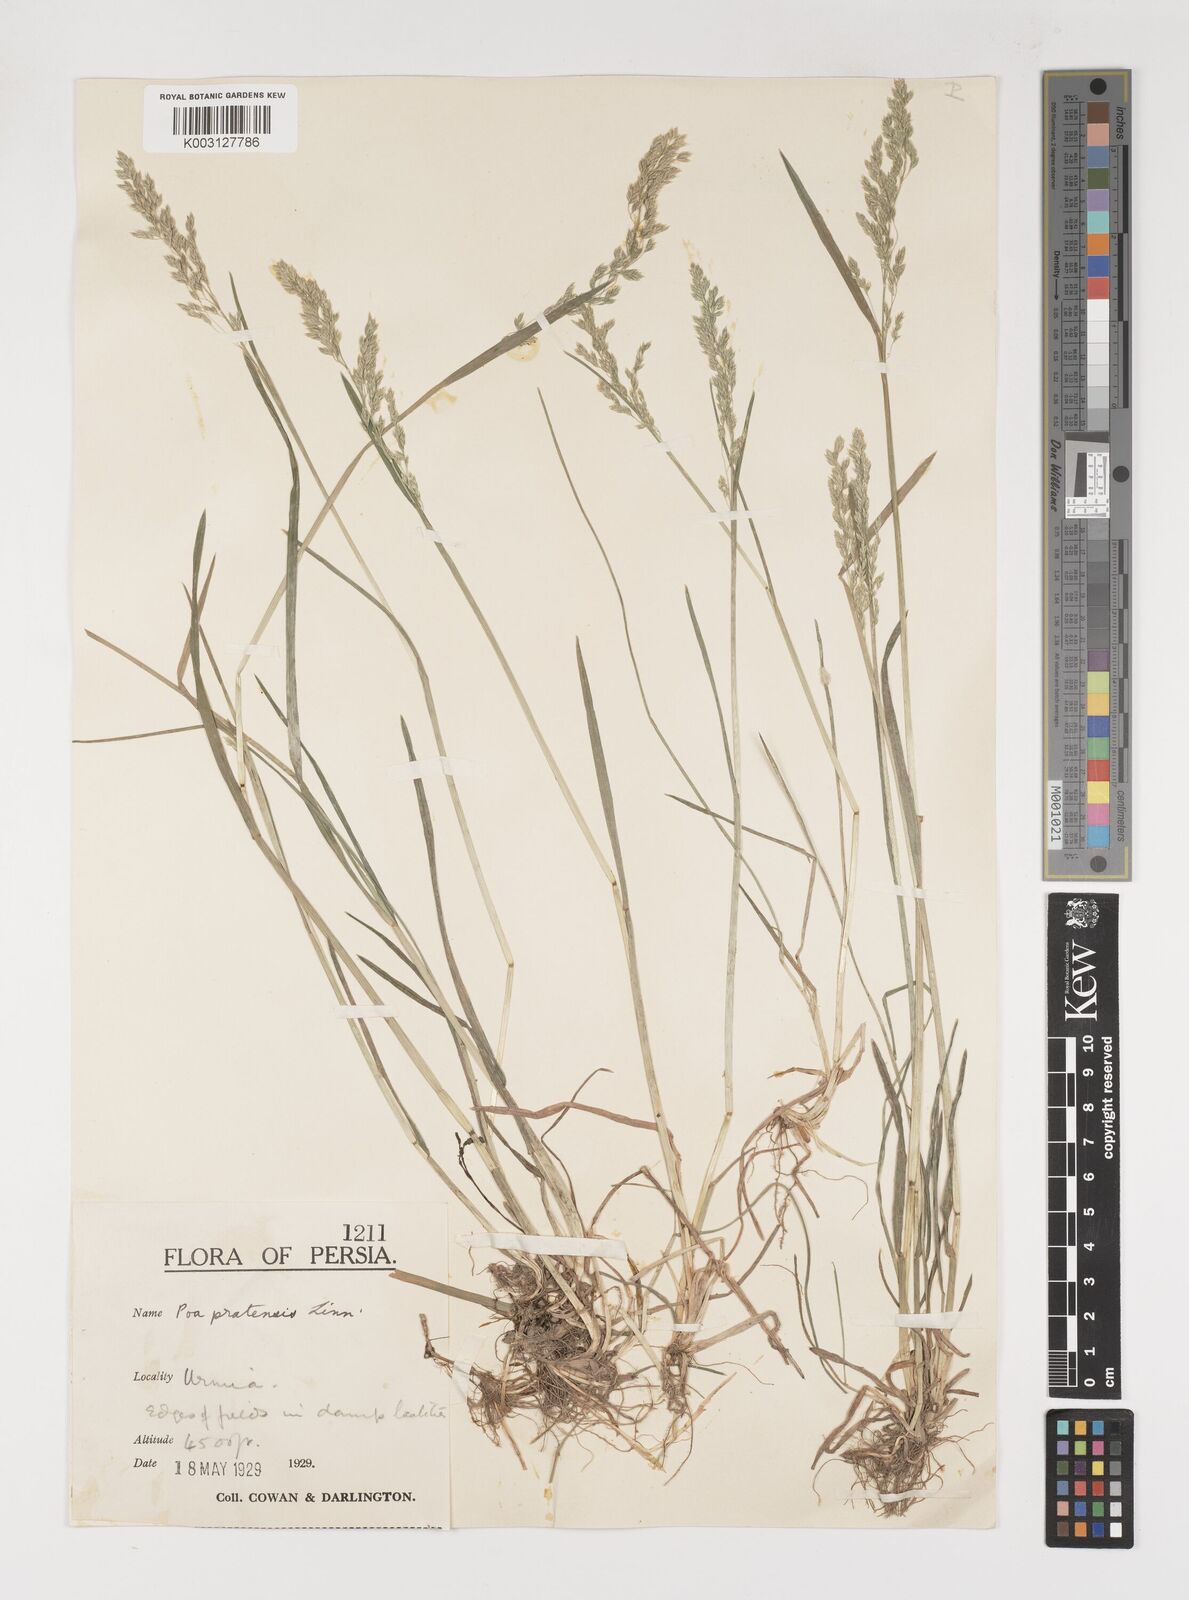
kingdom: Plantae
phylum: Tracheophyta
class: Liliopsida
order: Poales
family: Poaceae
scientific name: Poaceae
